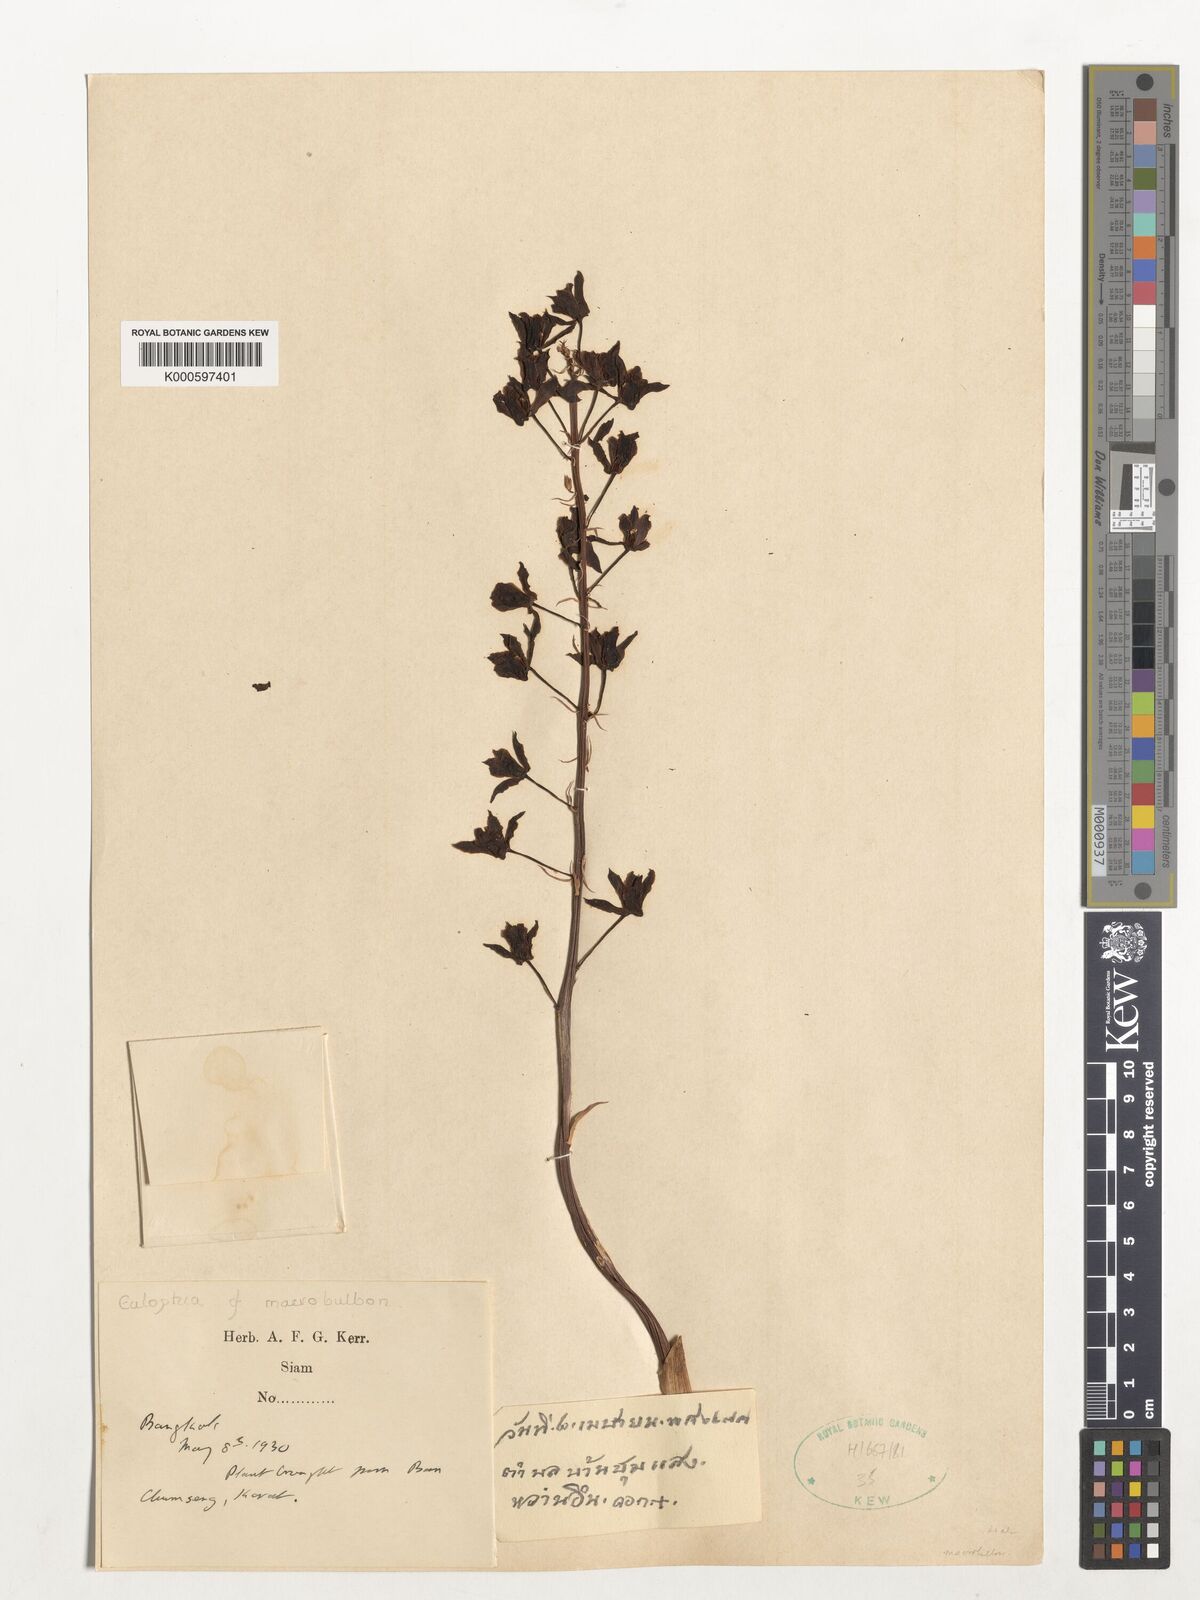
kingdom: Plantae
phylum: Tracheophyta
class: Liliopsida
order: Asparagales
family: Orchidaceae
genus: Eulophia
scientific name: Eulophia macrobulbon
